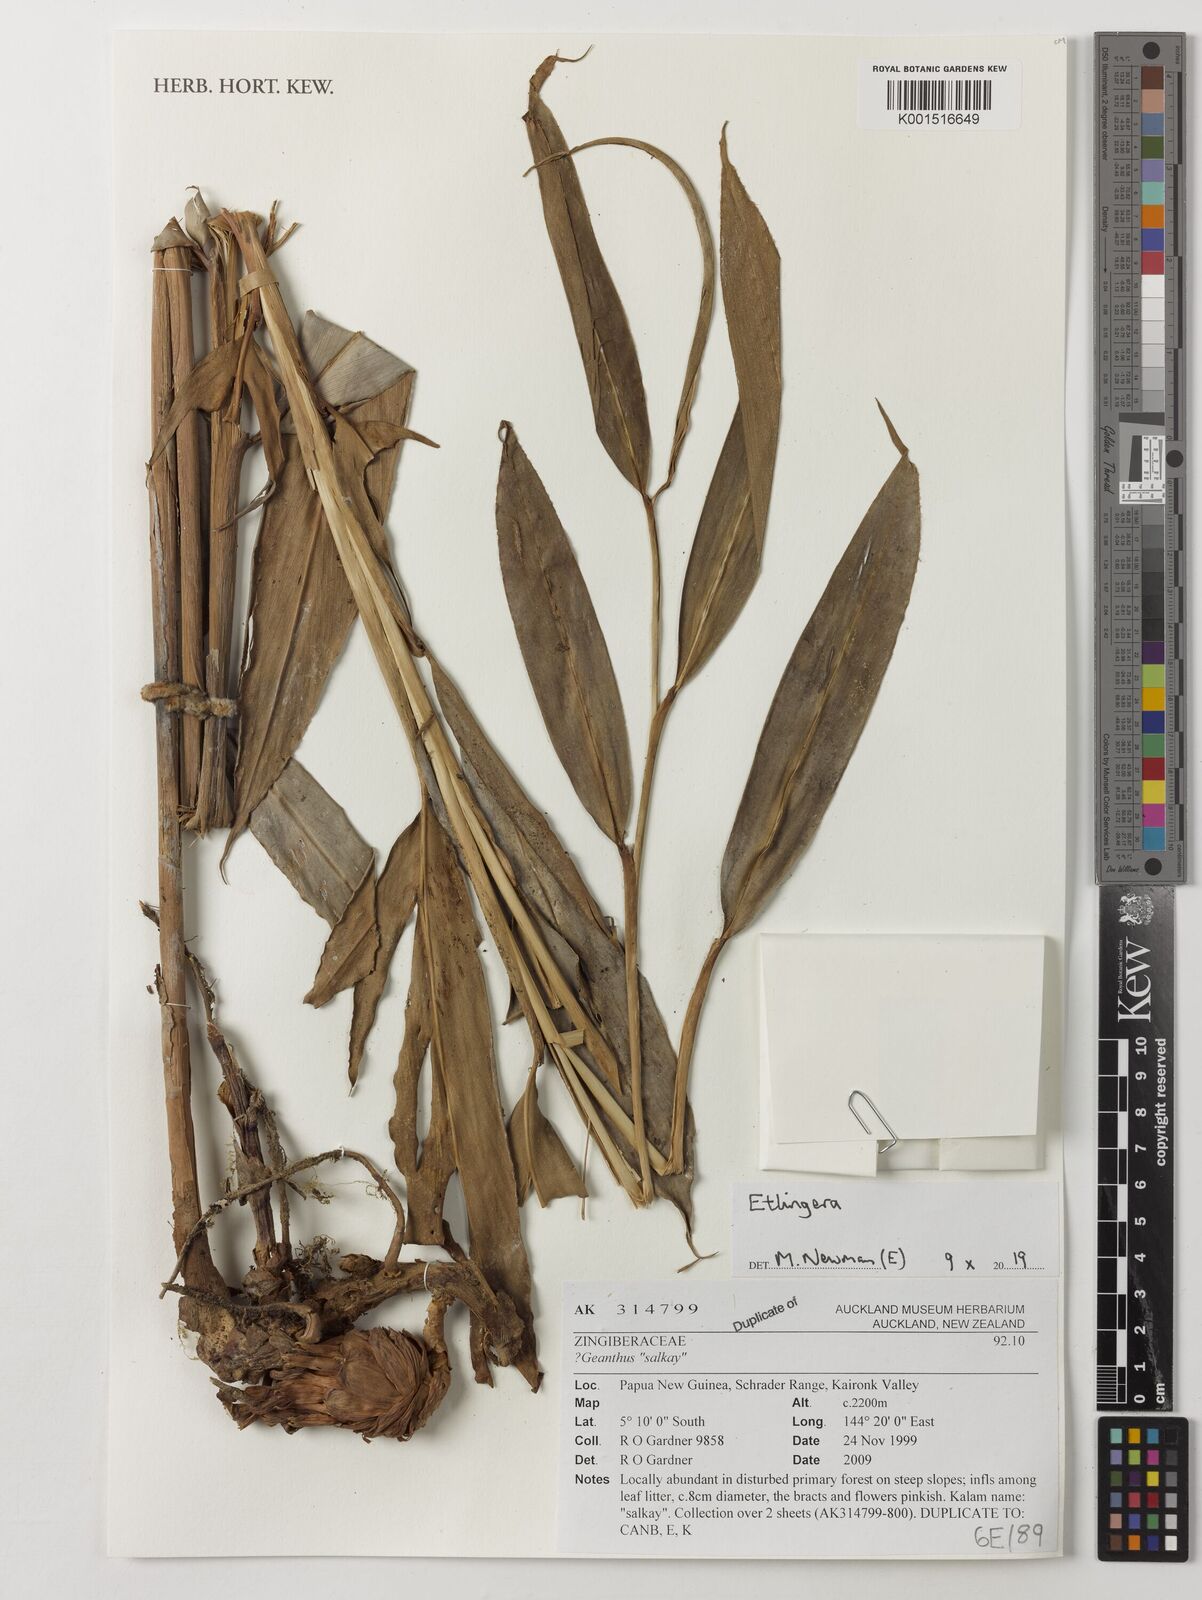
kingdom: Plantae
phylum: Tracheophyta
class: Liliopsida
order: Zingiberales
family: Zingiberaceae
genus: Etlingera
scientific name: Etlingera
